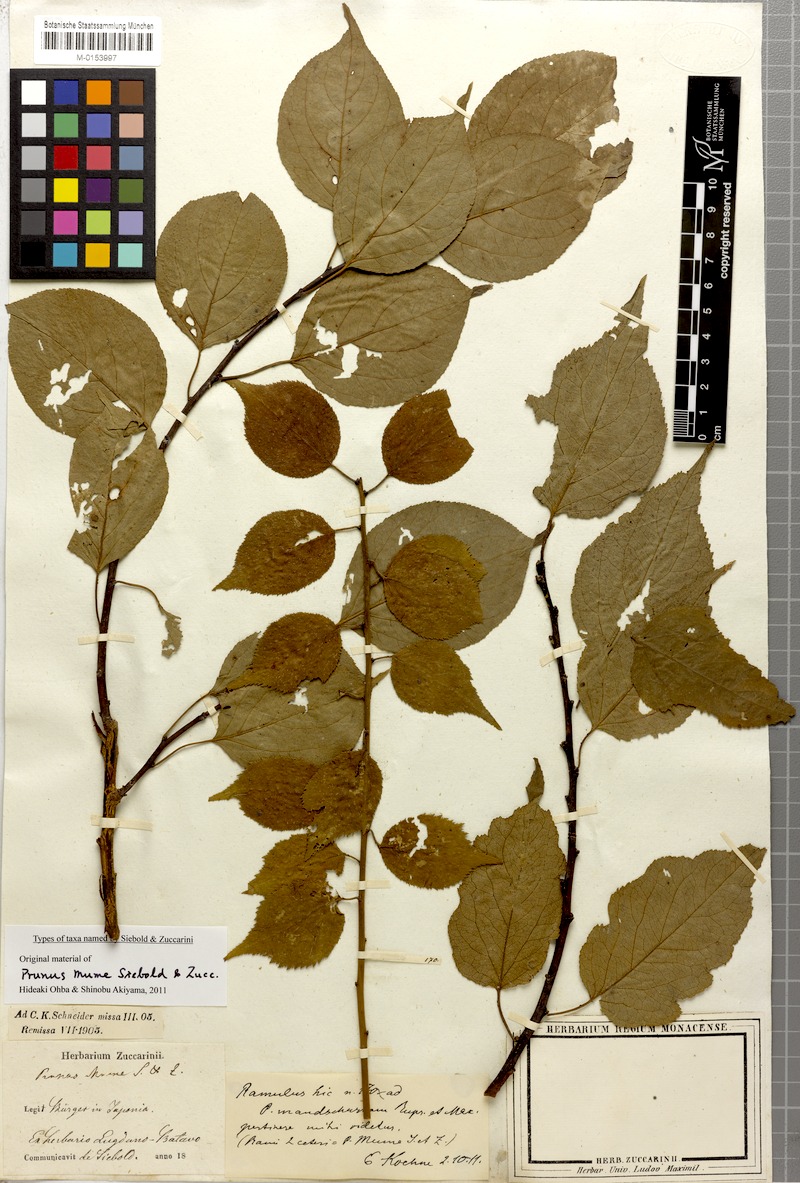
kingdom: Plantae
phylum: Tracheophyta
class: Magnoliopsida
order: Rosales
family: Rosaceae
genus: Prunus
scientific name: Prunus mume
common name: Japanese apricot
